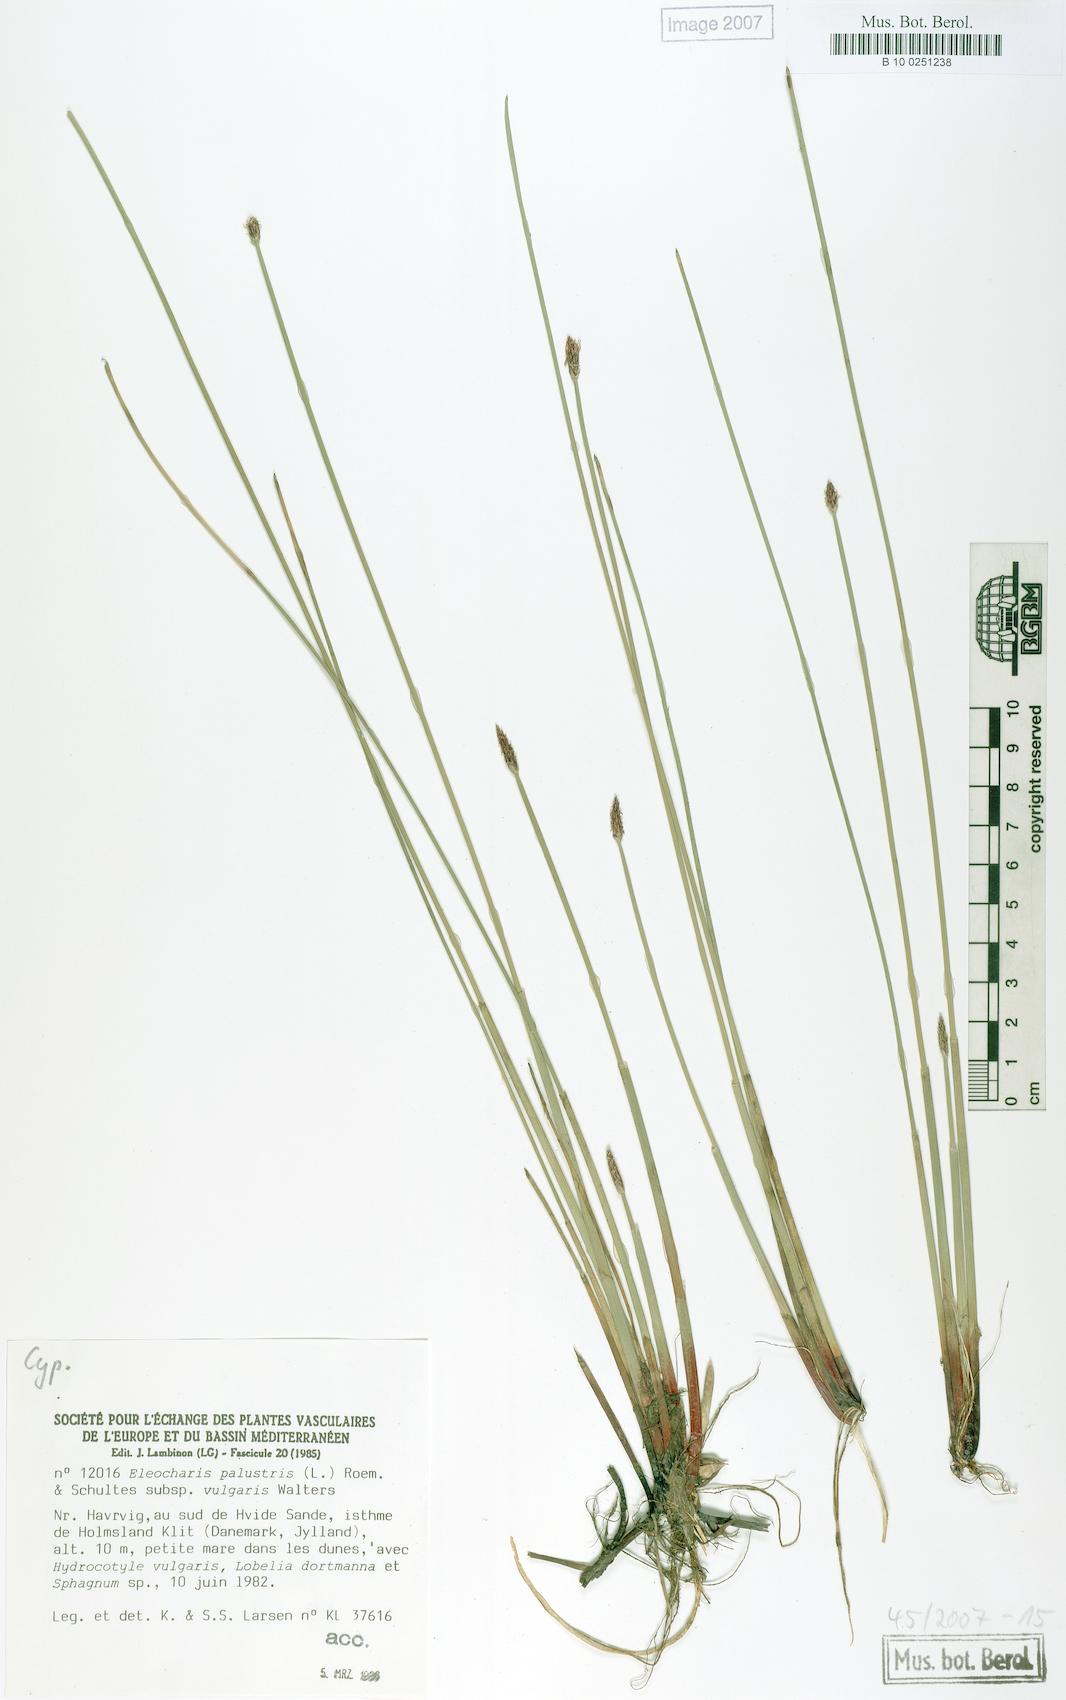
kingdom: Plantae
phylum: Tracheophyta
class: Liliopsida
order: Poales
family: Cyperaceae
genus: Eleocharis
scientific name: Eleocharis palustris
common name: Common spike-rush
